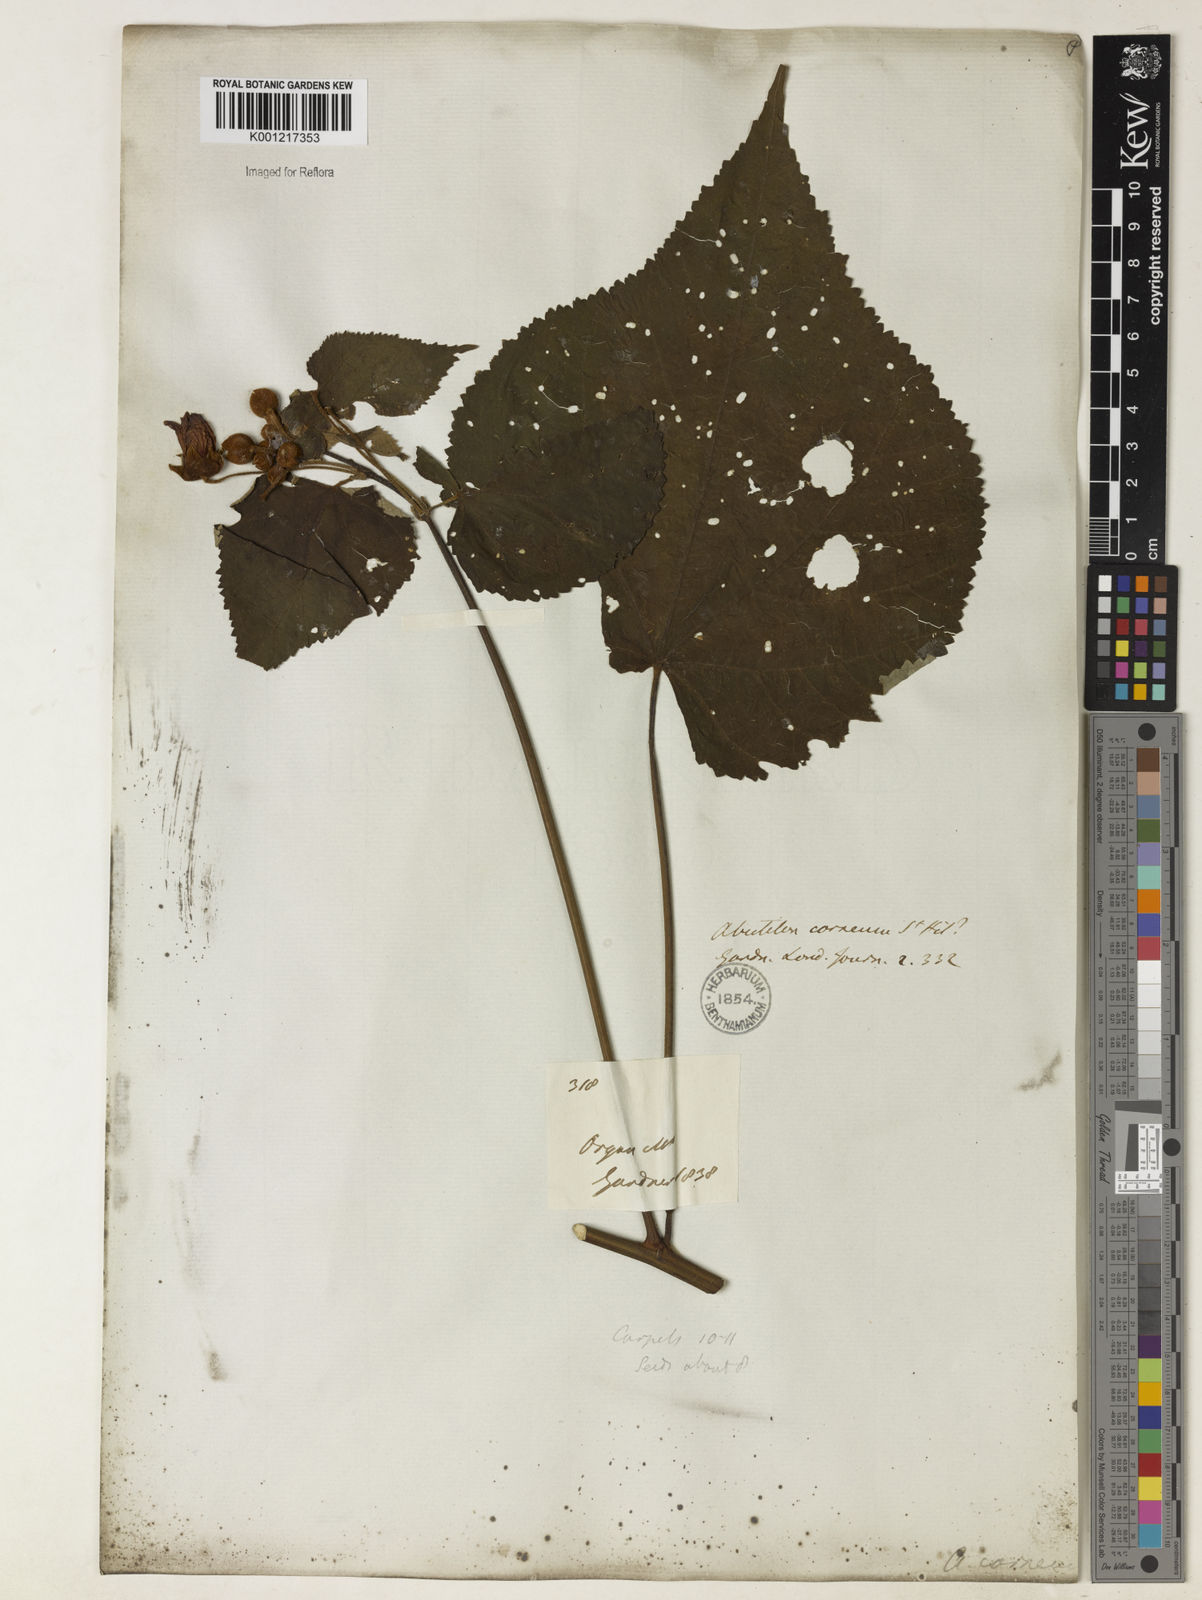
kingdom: Plantae
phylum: Tracheophyta
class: Magnoliopsida
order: Malvales
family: Malvaceae
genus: Bakeridesia
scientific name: Bakeridesia esculenta
